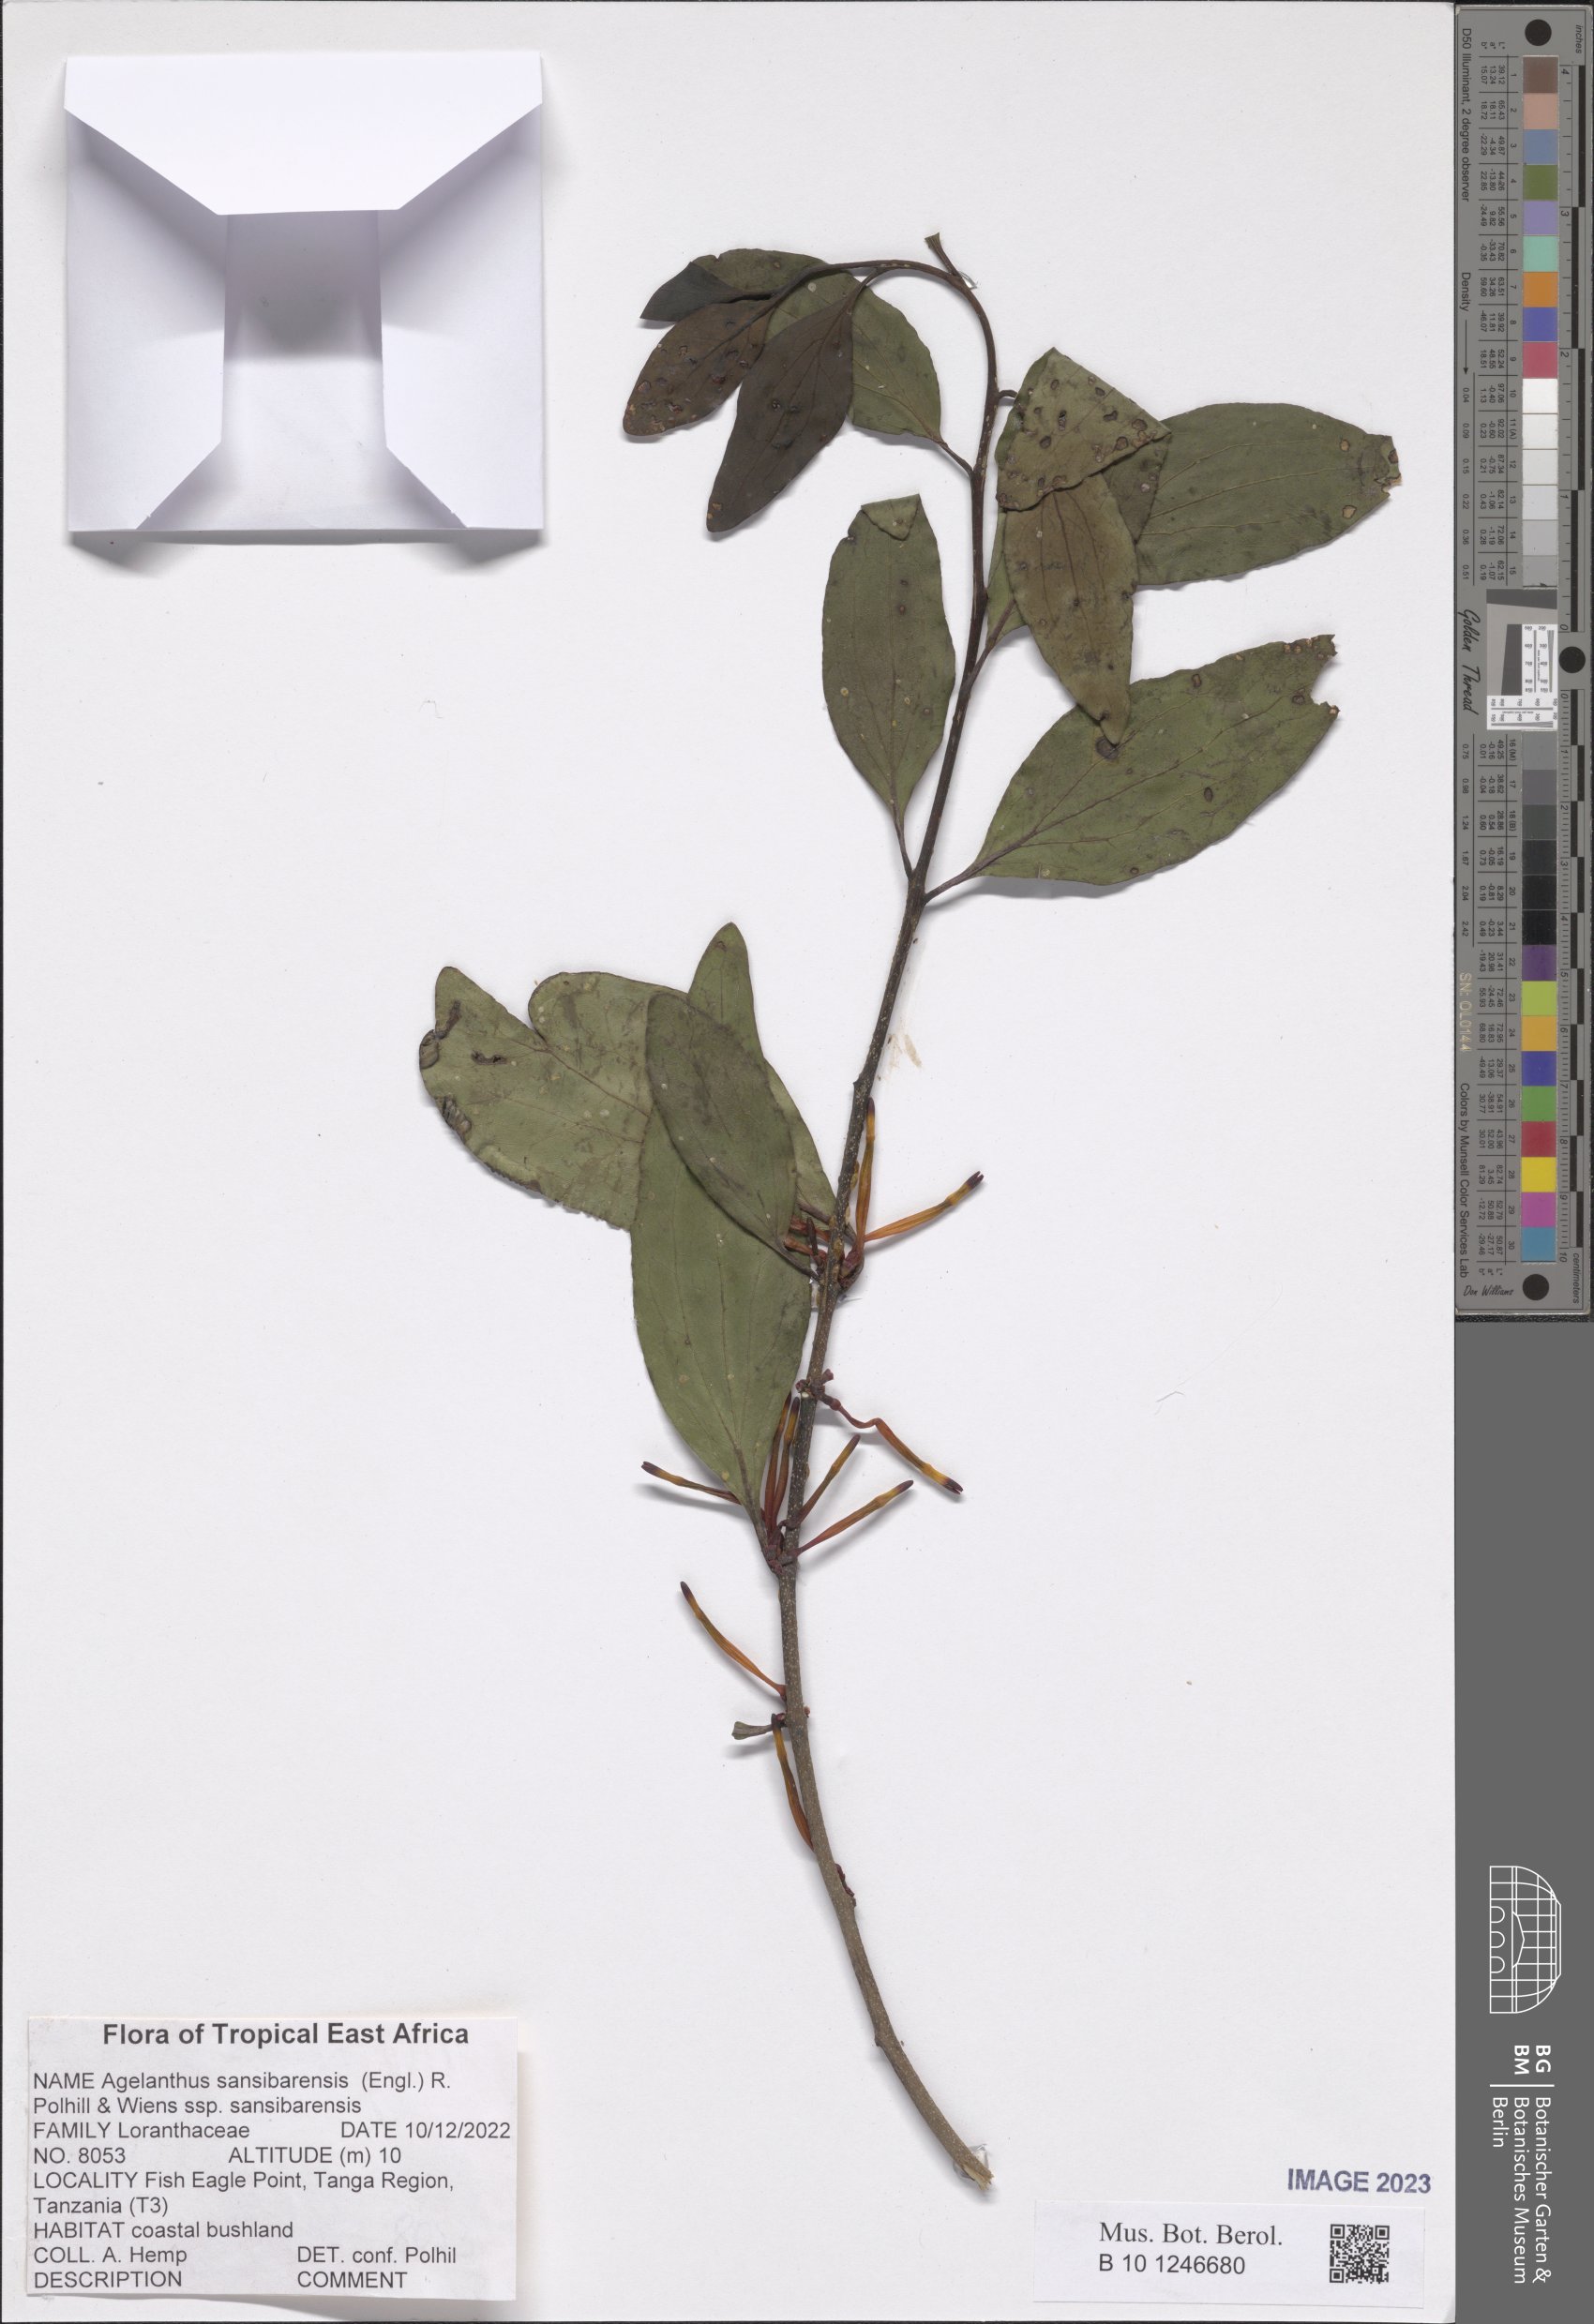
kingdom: Plantae
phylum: Tracheophyta
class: Magnoliopsida
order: Santalales
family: Loranthaceae
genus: Agelanthus
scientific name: Agelanthus sansibarensis
